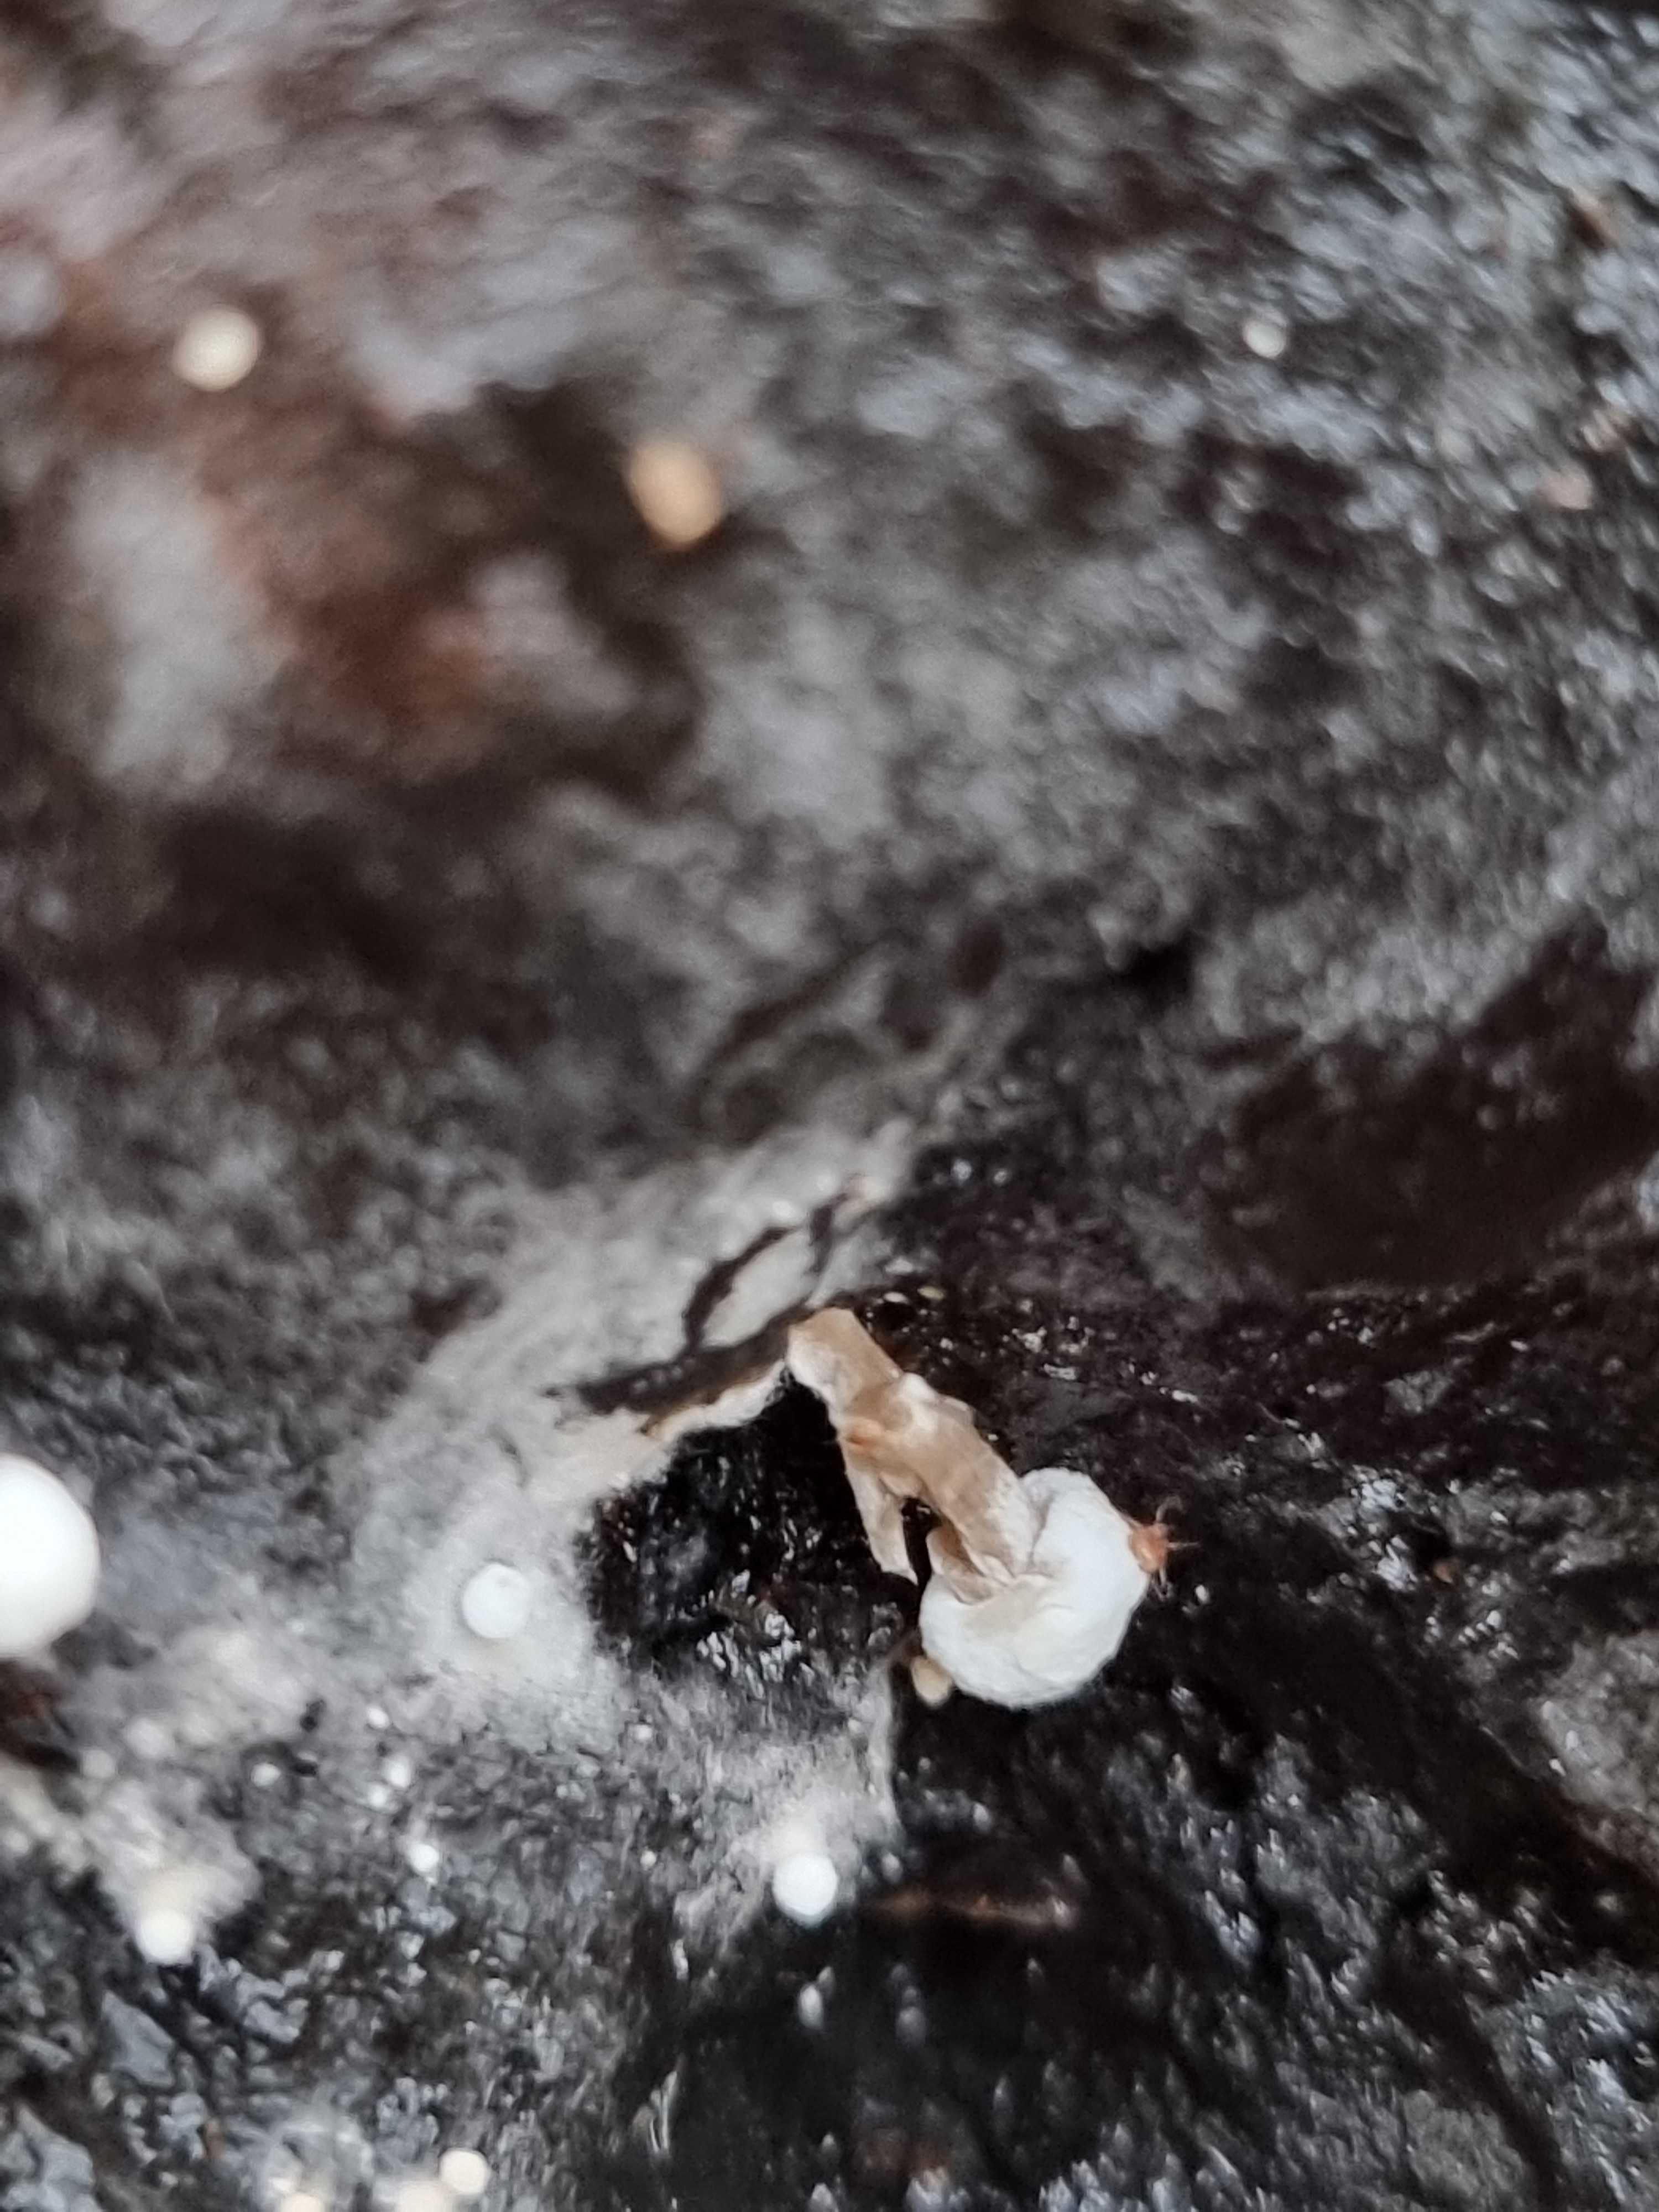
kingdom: Fungi
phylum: Basidiomycota
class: Agaricomycetes
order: Agaricales
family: Lyophyllaceae
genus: Asterophora
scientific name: Asterophora lycoperdoides
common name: brunpudret snyltehat
